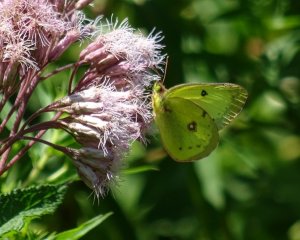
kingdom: Animalia
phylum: Arthropoda
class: Insecta
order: Lepidoptera
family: Pieridae
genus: Colias
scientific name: Colias philodice
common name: Clouded Sulphur
